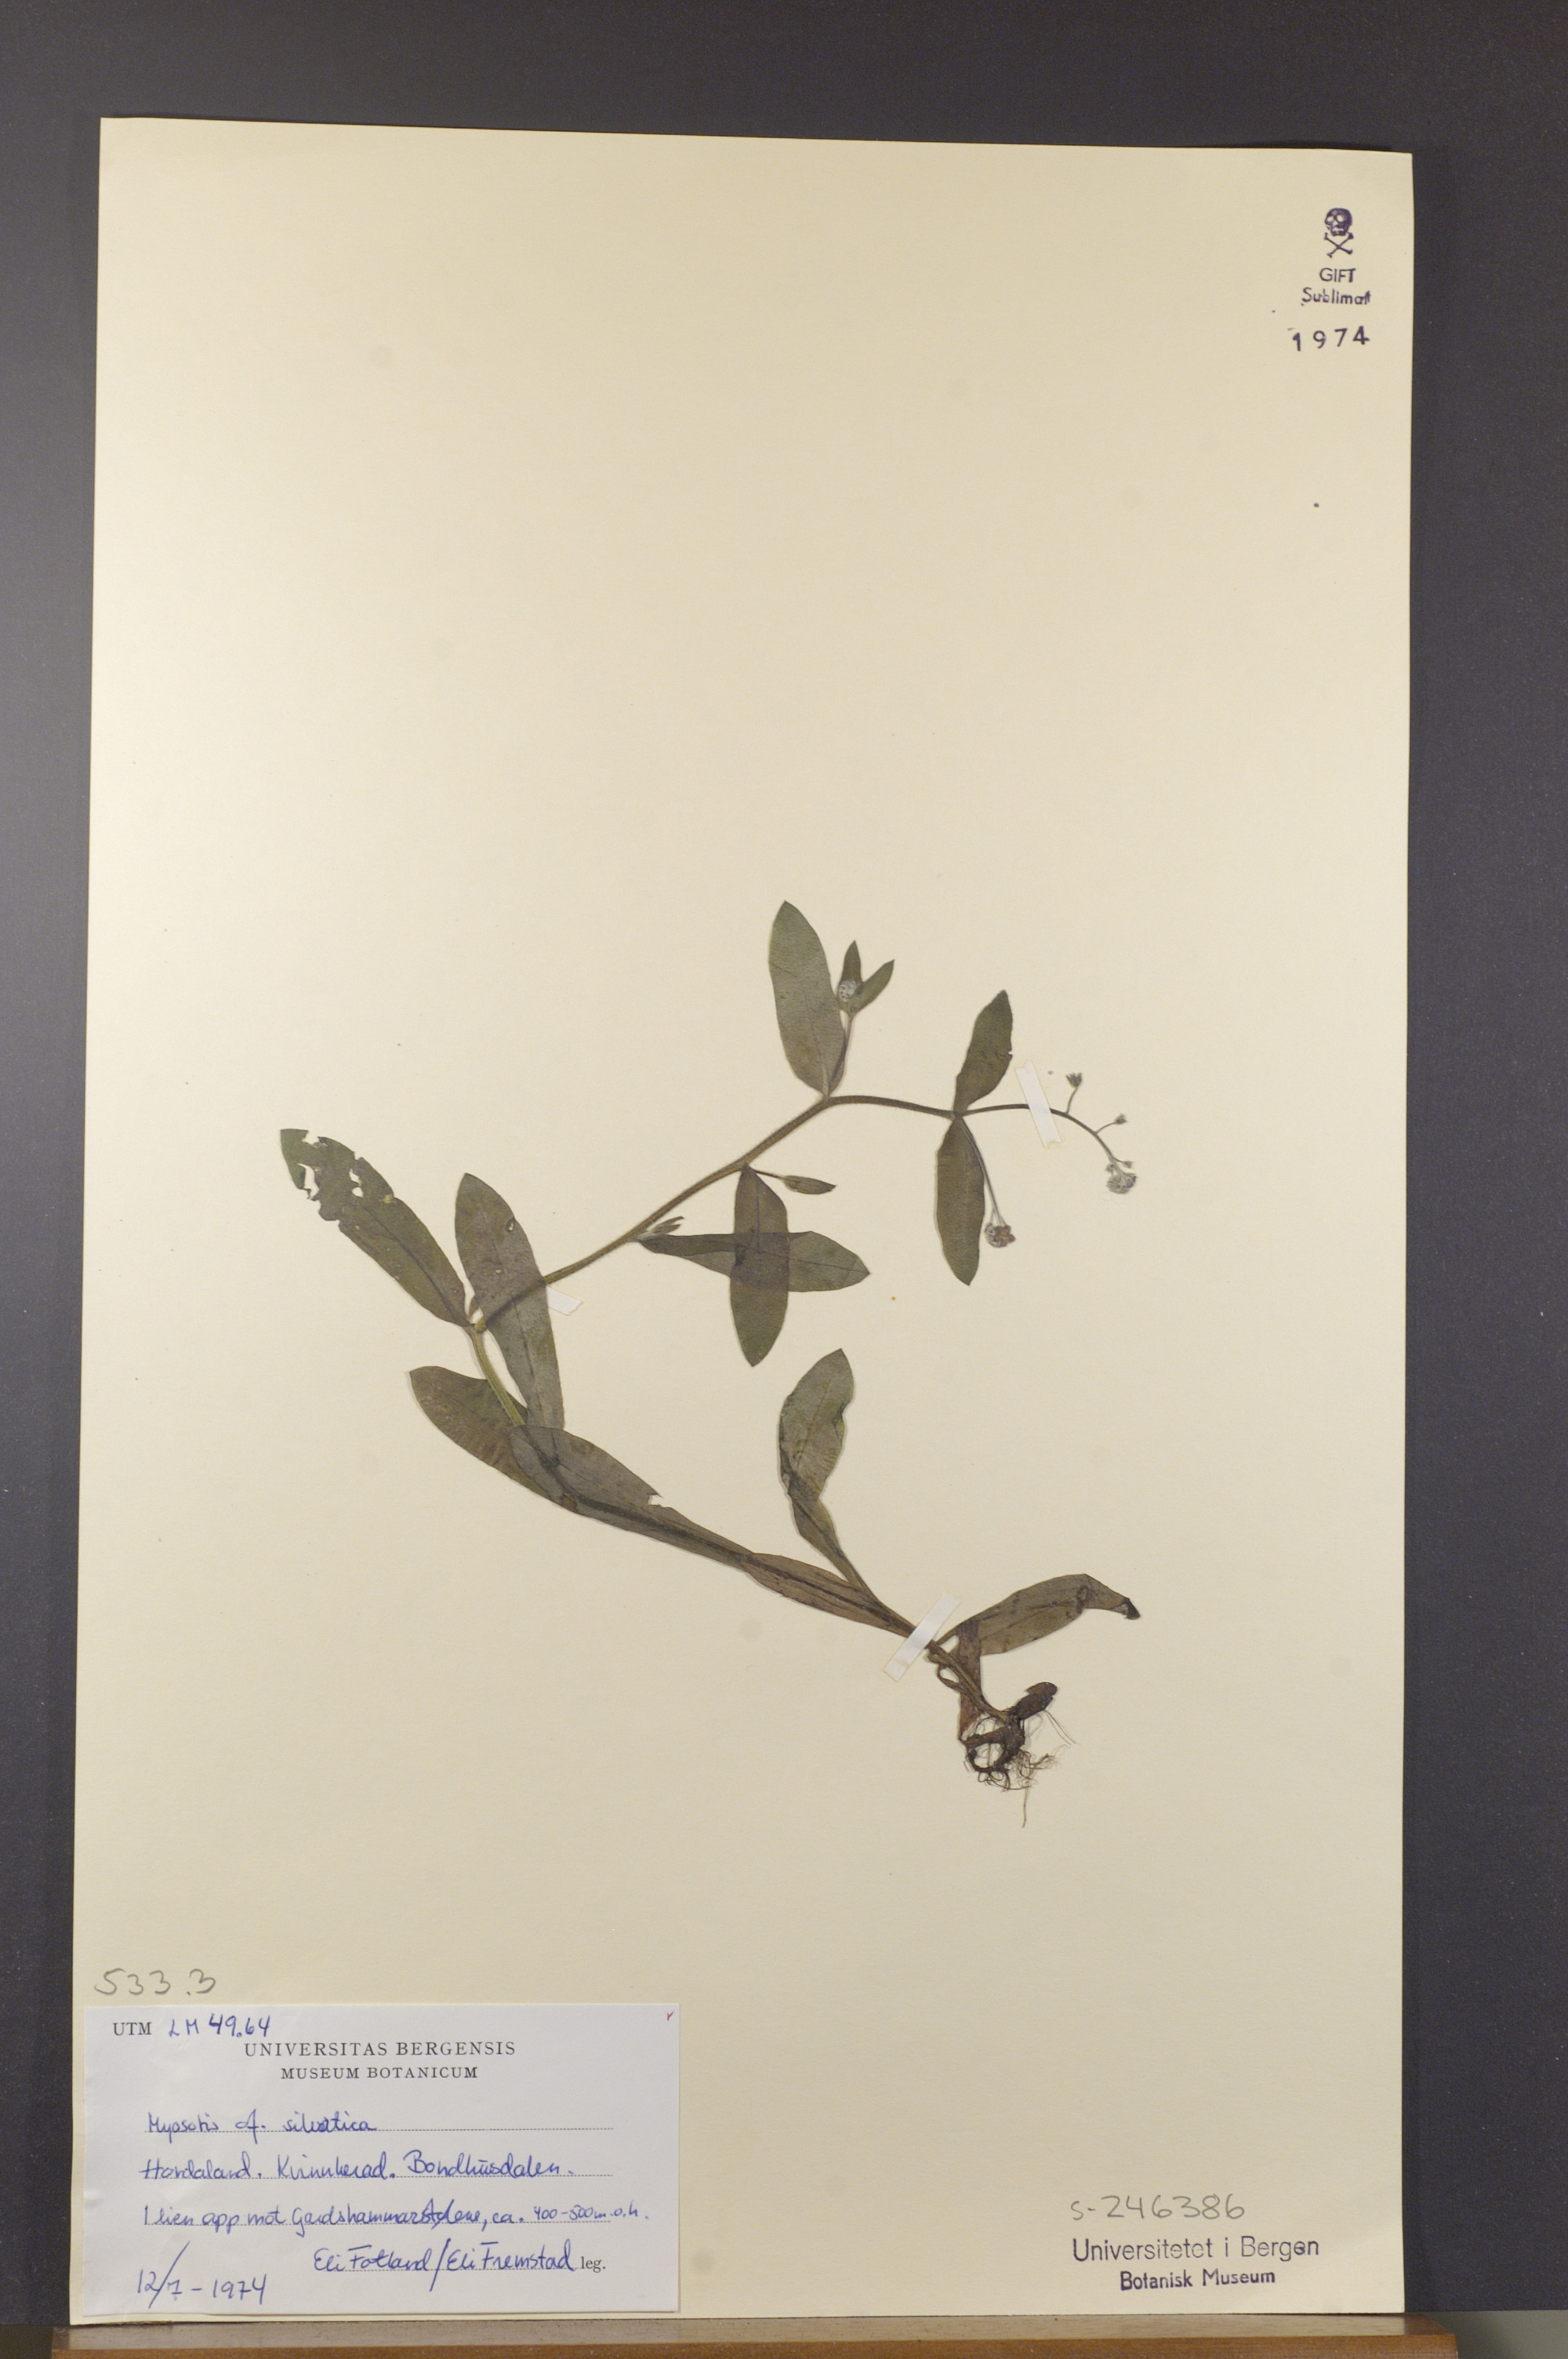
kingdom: Plantae
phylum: Tracheophyta
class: Magnoliopsida
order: Boraginales
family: Boraginaceae
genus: Myosotis
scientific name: Myosotis decumbens
